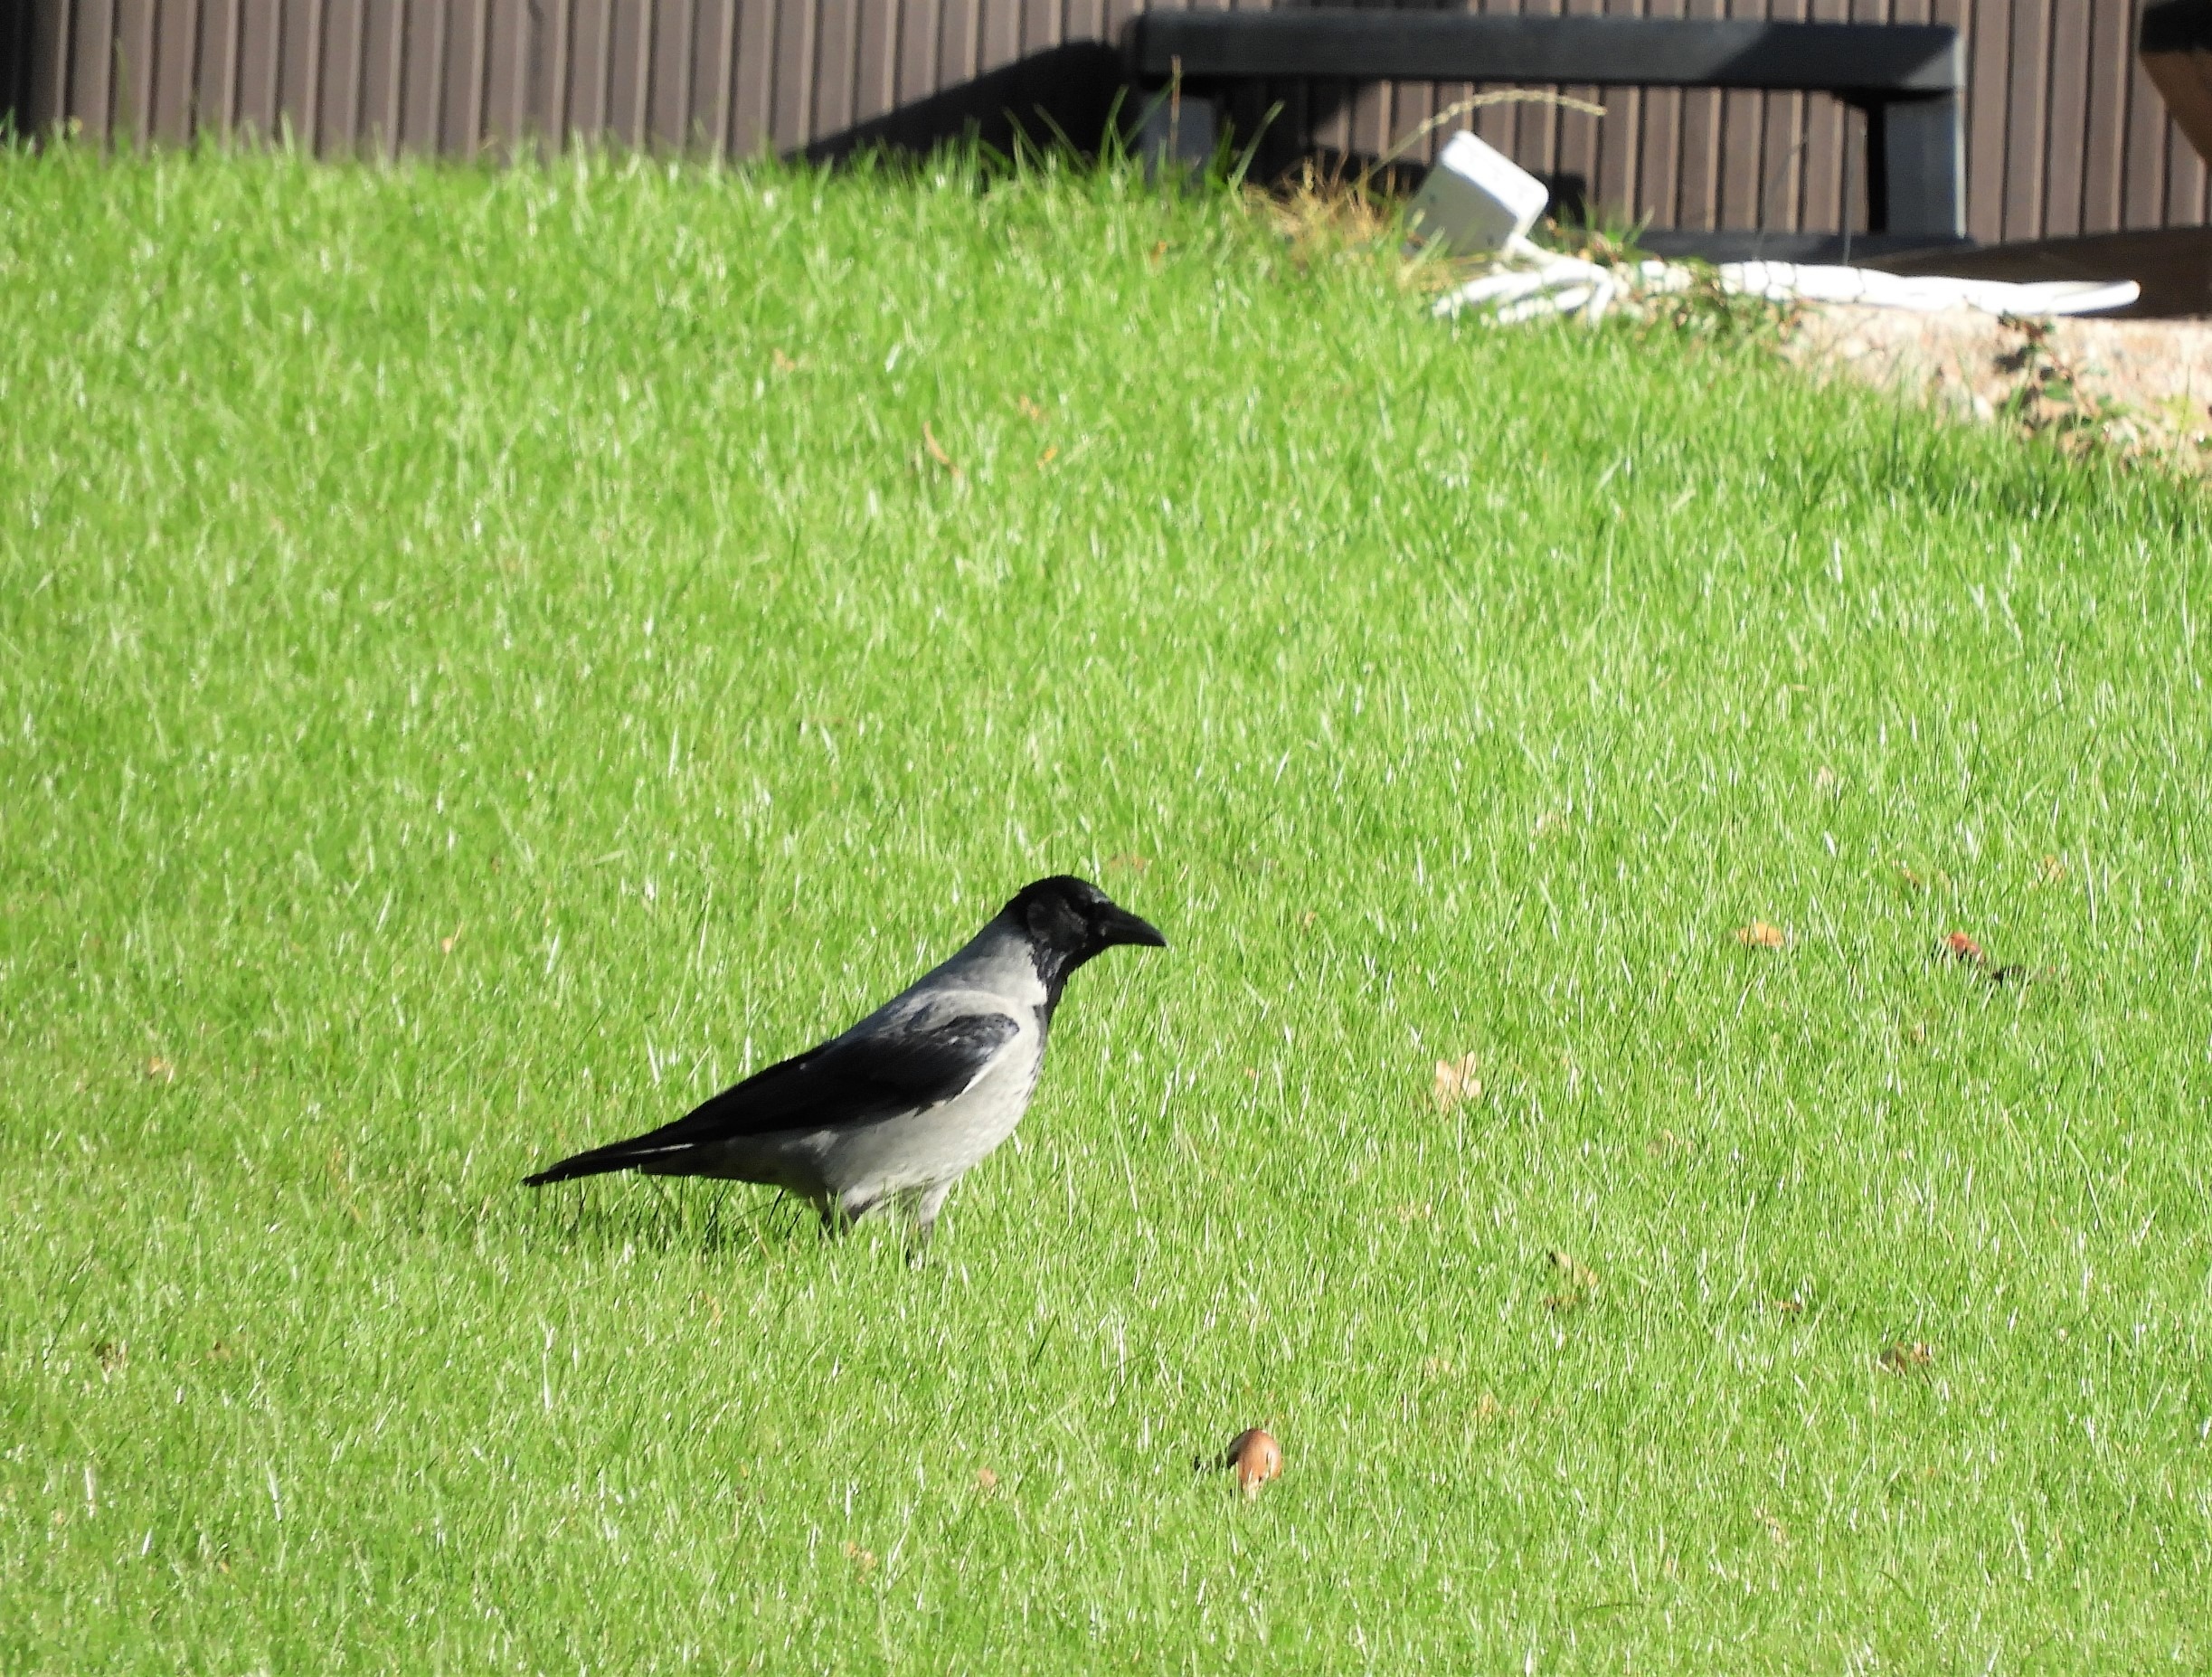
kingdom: Animalia
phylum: Chordata
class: Aves
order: Passeriformes
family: Corvidae
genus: Corvus
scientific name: Corvus cornix
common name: Gråkrage
